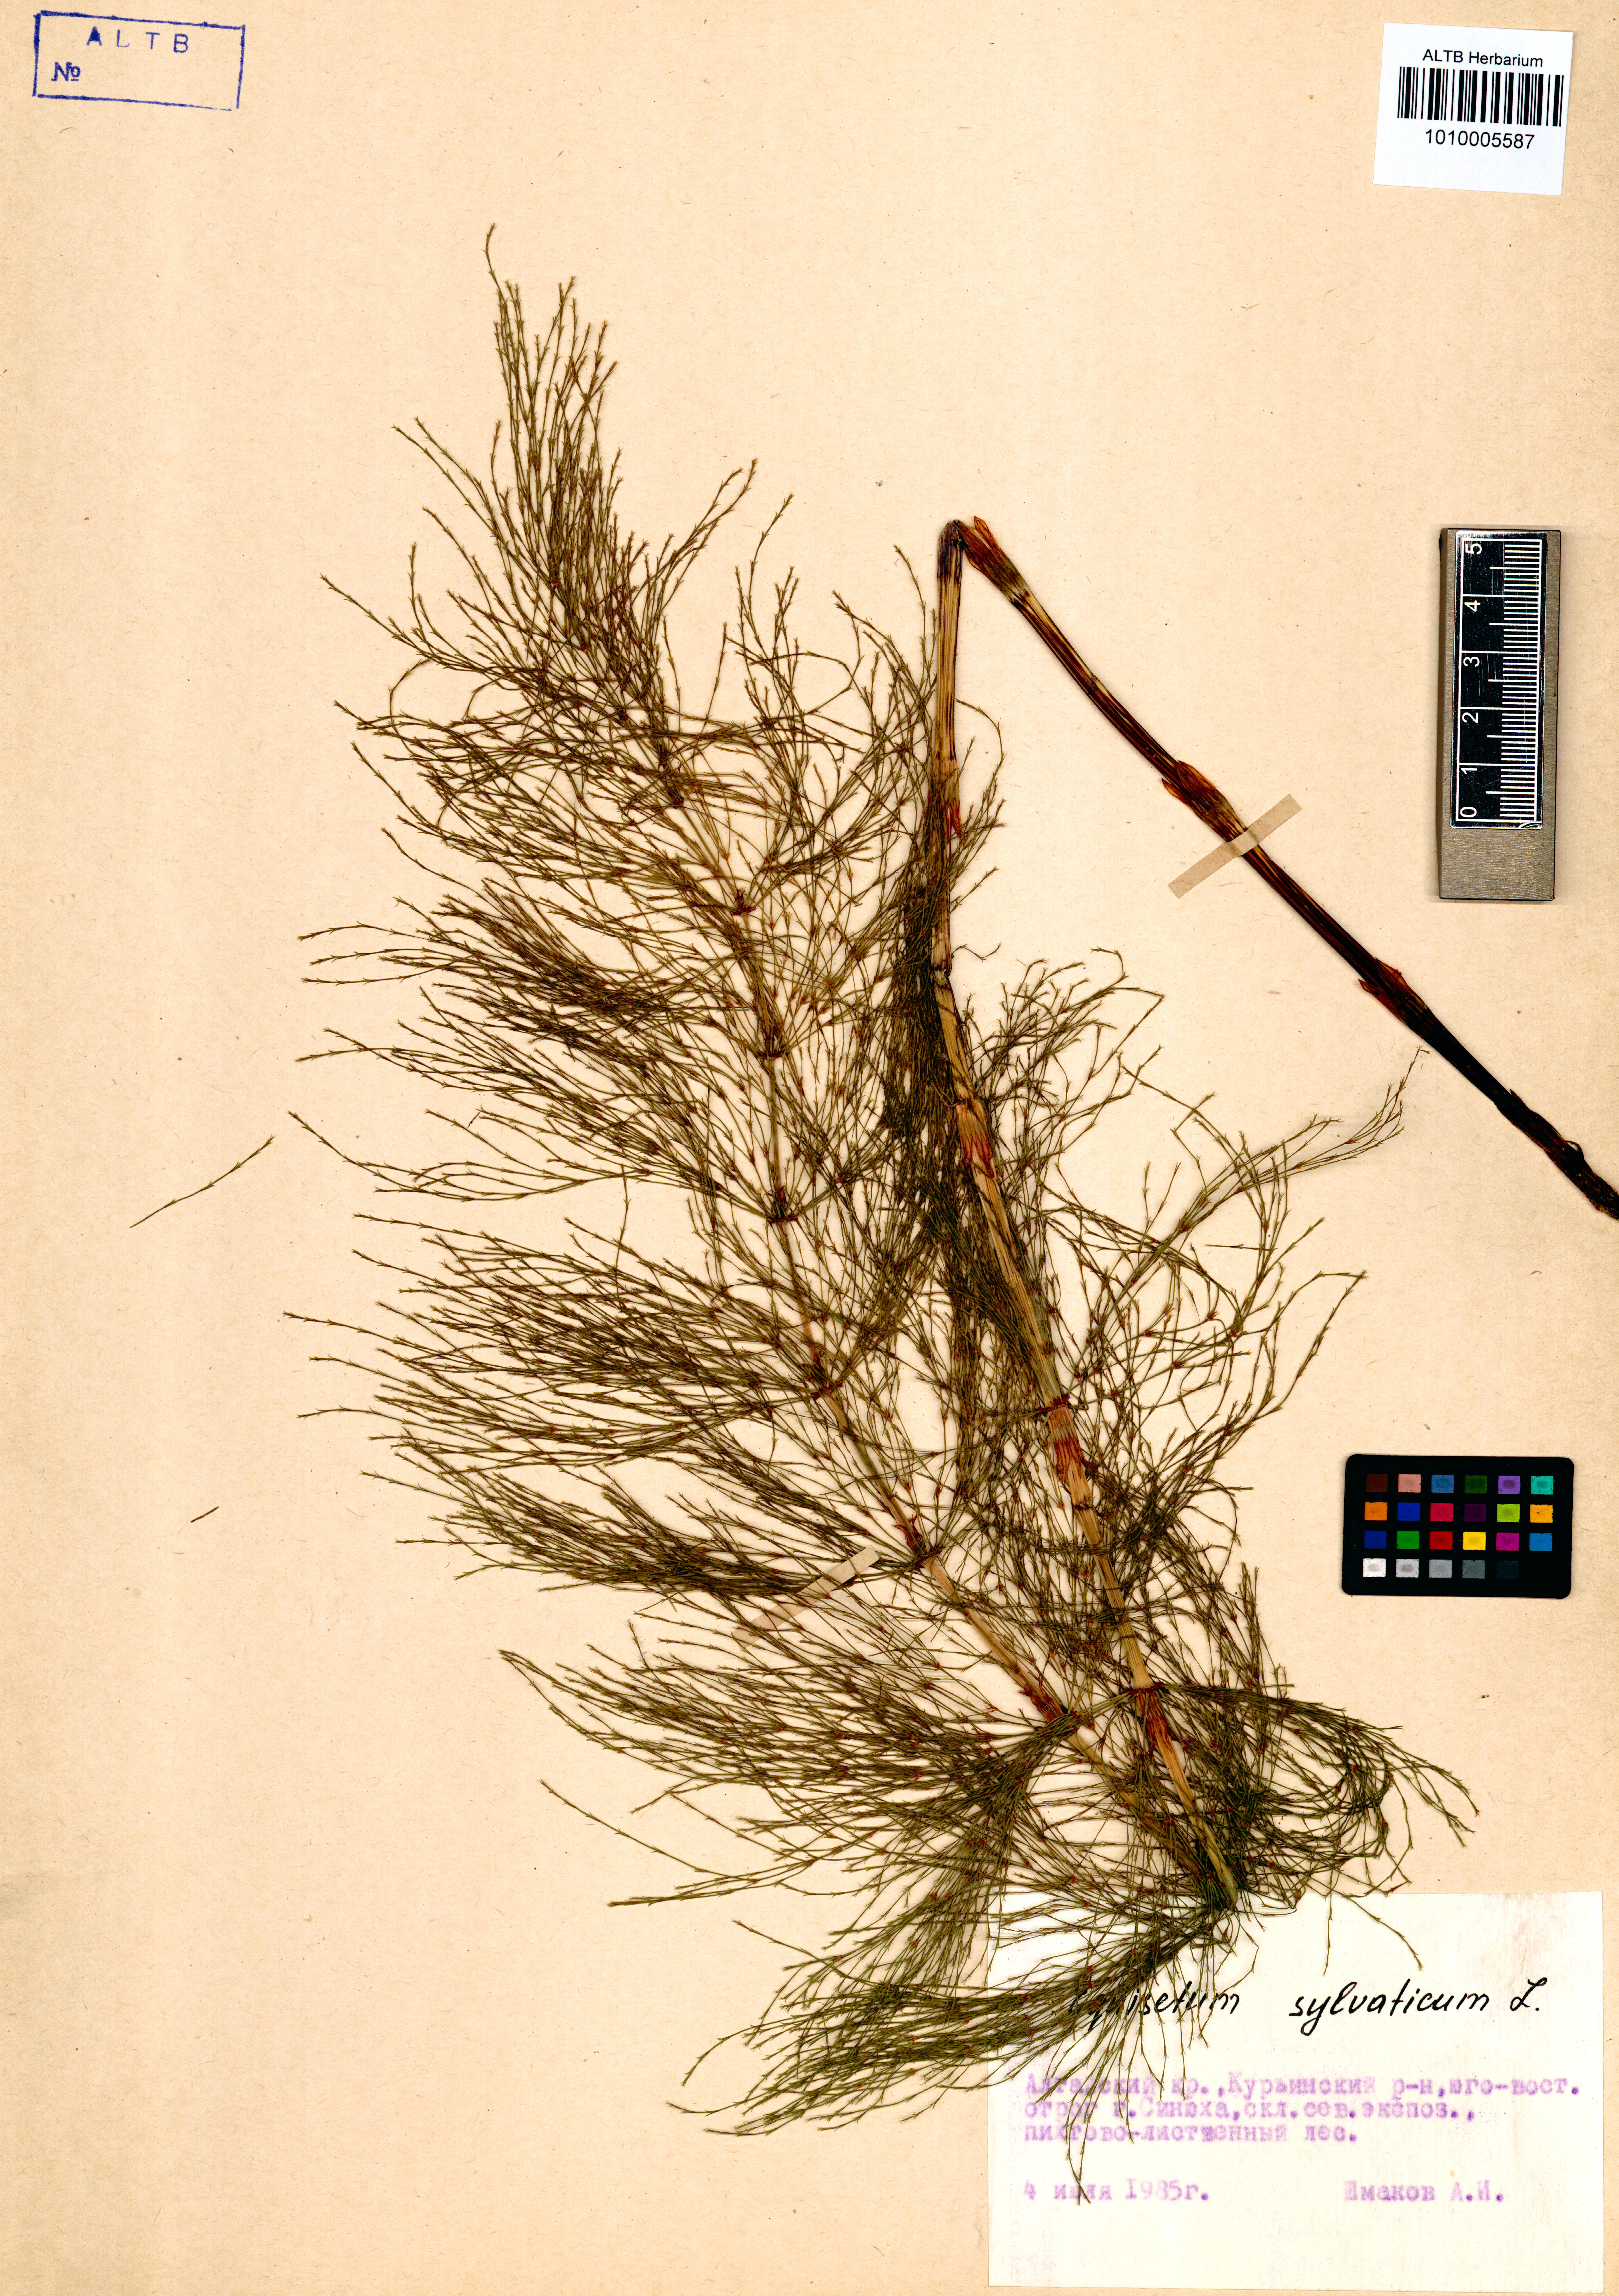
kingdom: Plantae
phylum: Tracheophyta
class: Polypodiopsida
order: Equisetales
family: Equisetaceae
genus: Equisetum
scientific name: Equisetum sylvaticum
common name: Wood horsetail
